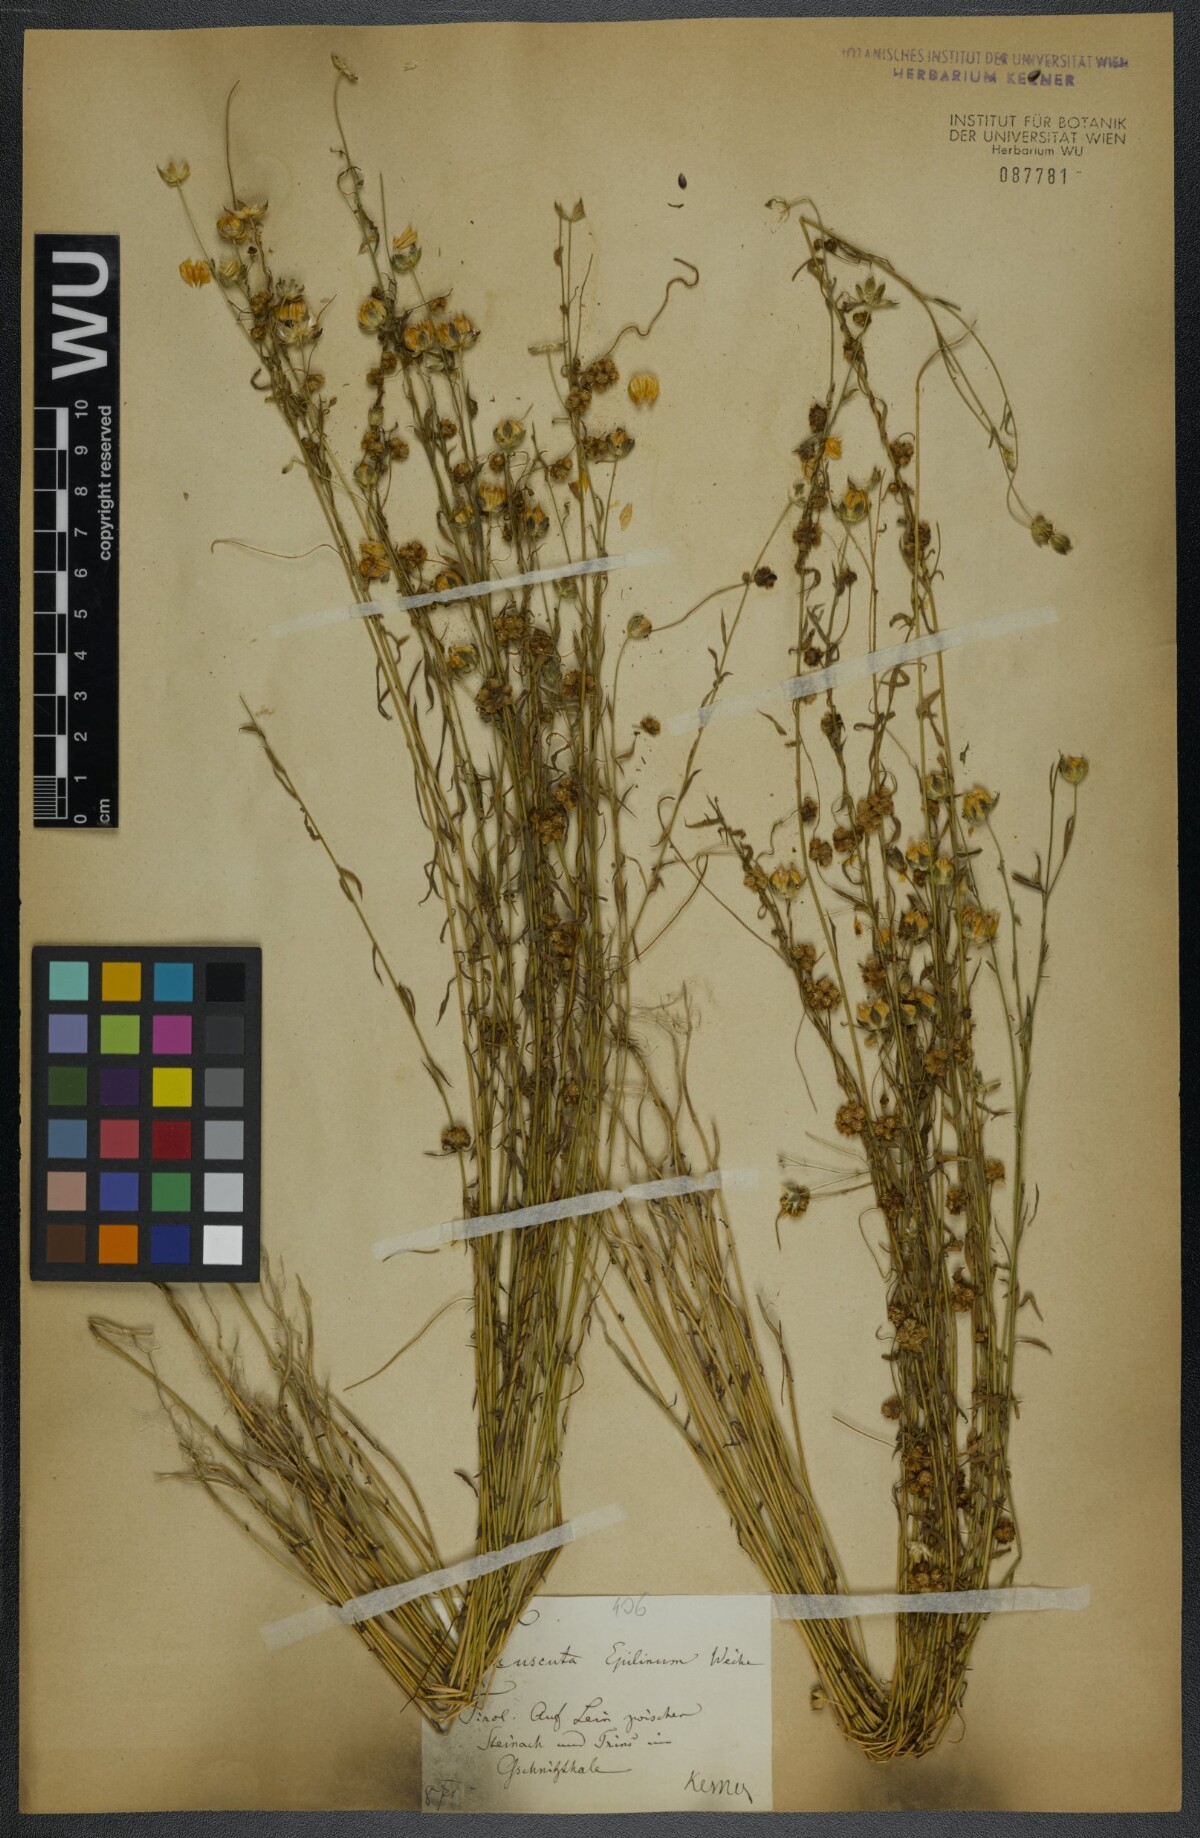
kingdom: Plantae
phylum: Tracheophyta
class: Magnoliopsida
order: Solanales
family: Convolvulaceae
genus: Cuscuta
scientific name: Cuscuta epilinum
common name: Flax dodder
